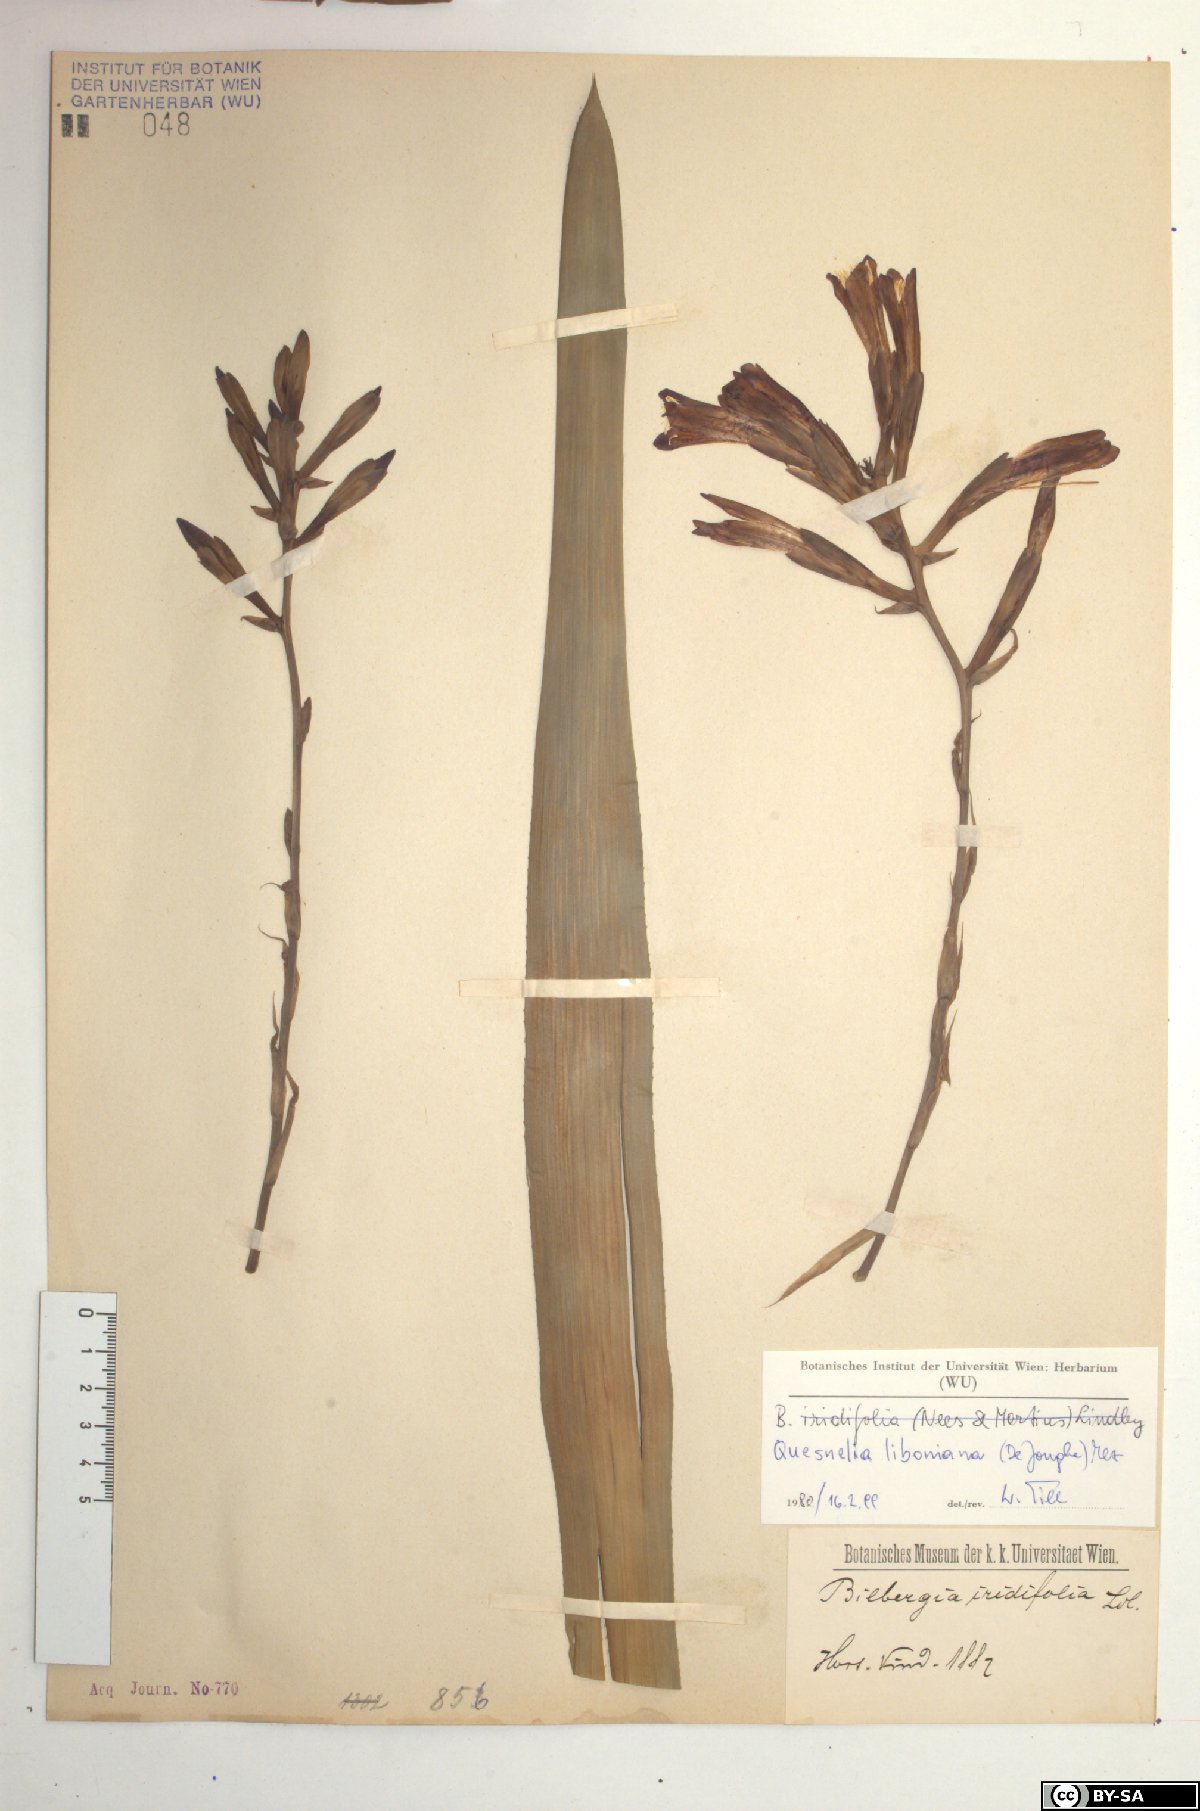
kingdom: Plantae
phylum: Tracheophyta
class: Liliopsida
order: Poales
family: Bromeliaceae
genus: Quesnelia
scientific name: Quesnelia liboniana
